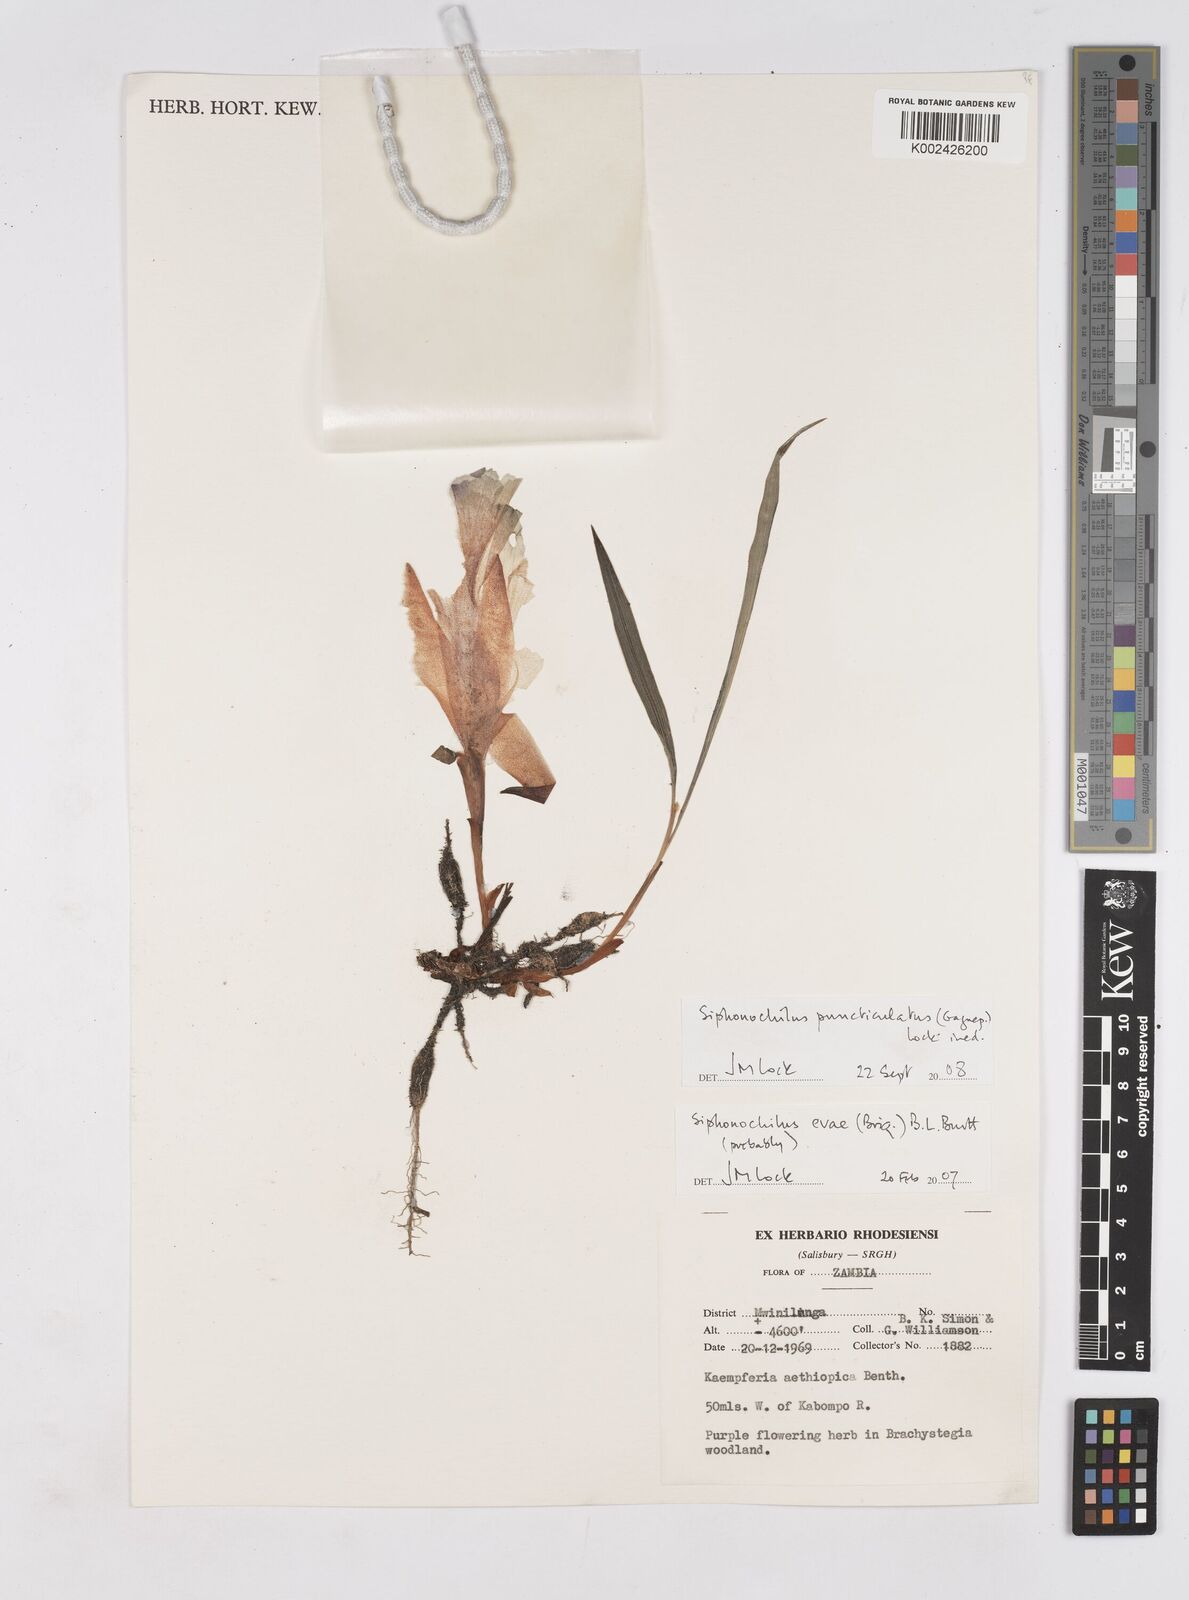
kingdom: Plantae
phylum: Tracheophyta
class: Liliopsida
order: Zingiberales
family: Zingiberaceae
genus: Siphonochilus
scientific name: Siphonochilus puncticulatus
